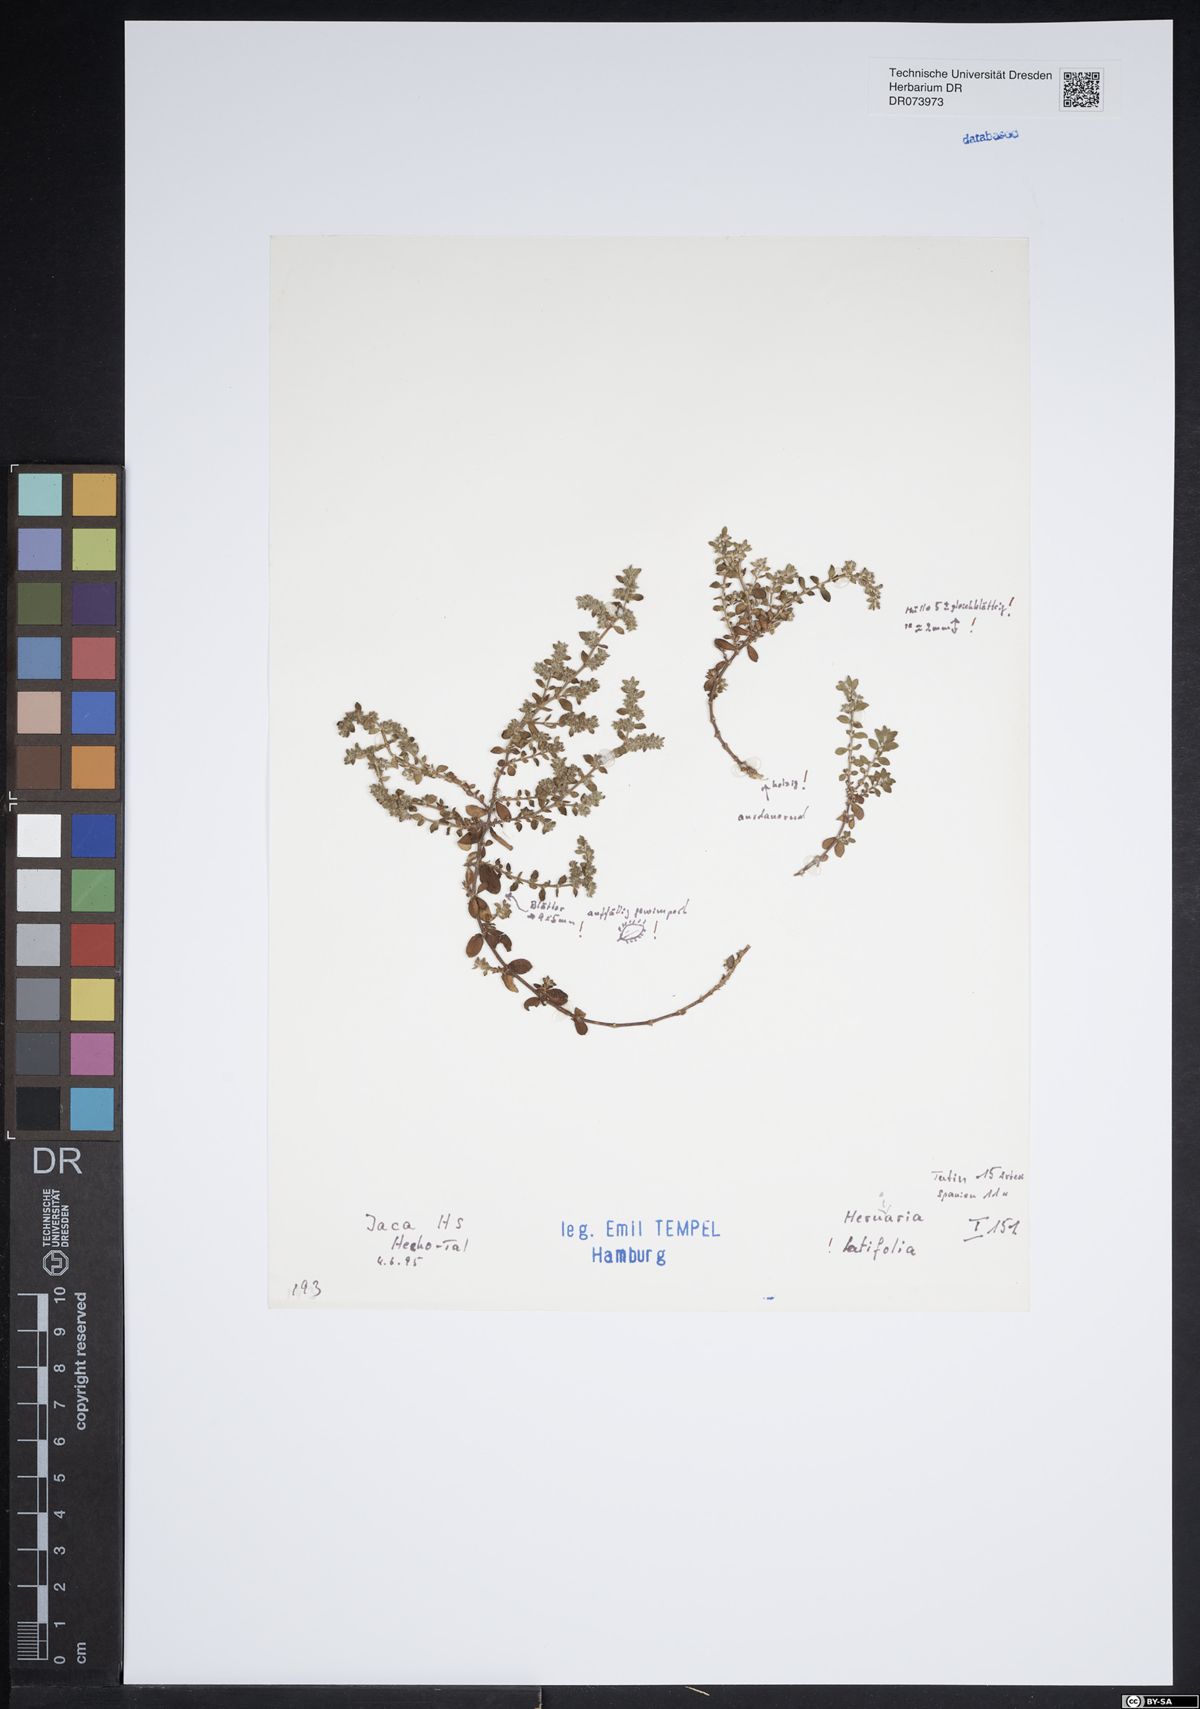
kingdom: Plantae
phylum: Tracheophyta
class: Magnoliopsida
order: Caryophyllales
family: Caryophyllaceae
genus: Herniaria
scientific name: Herniaria latifolia
